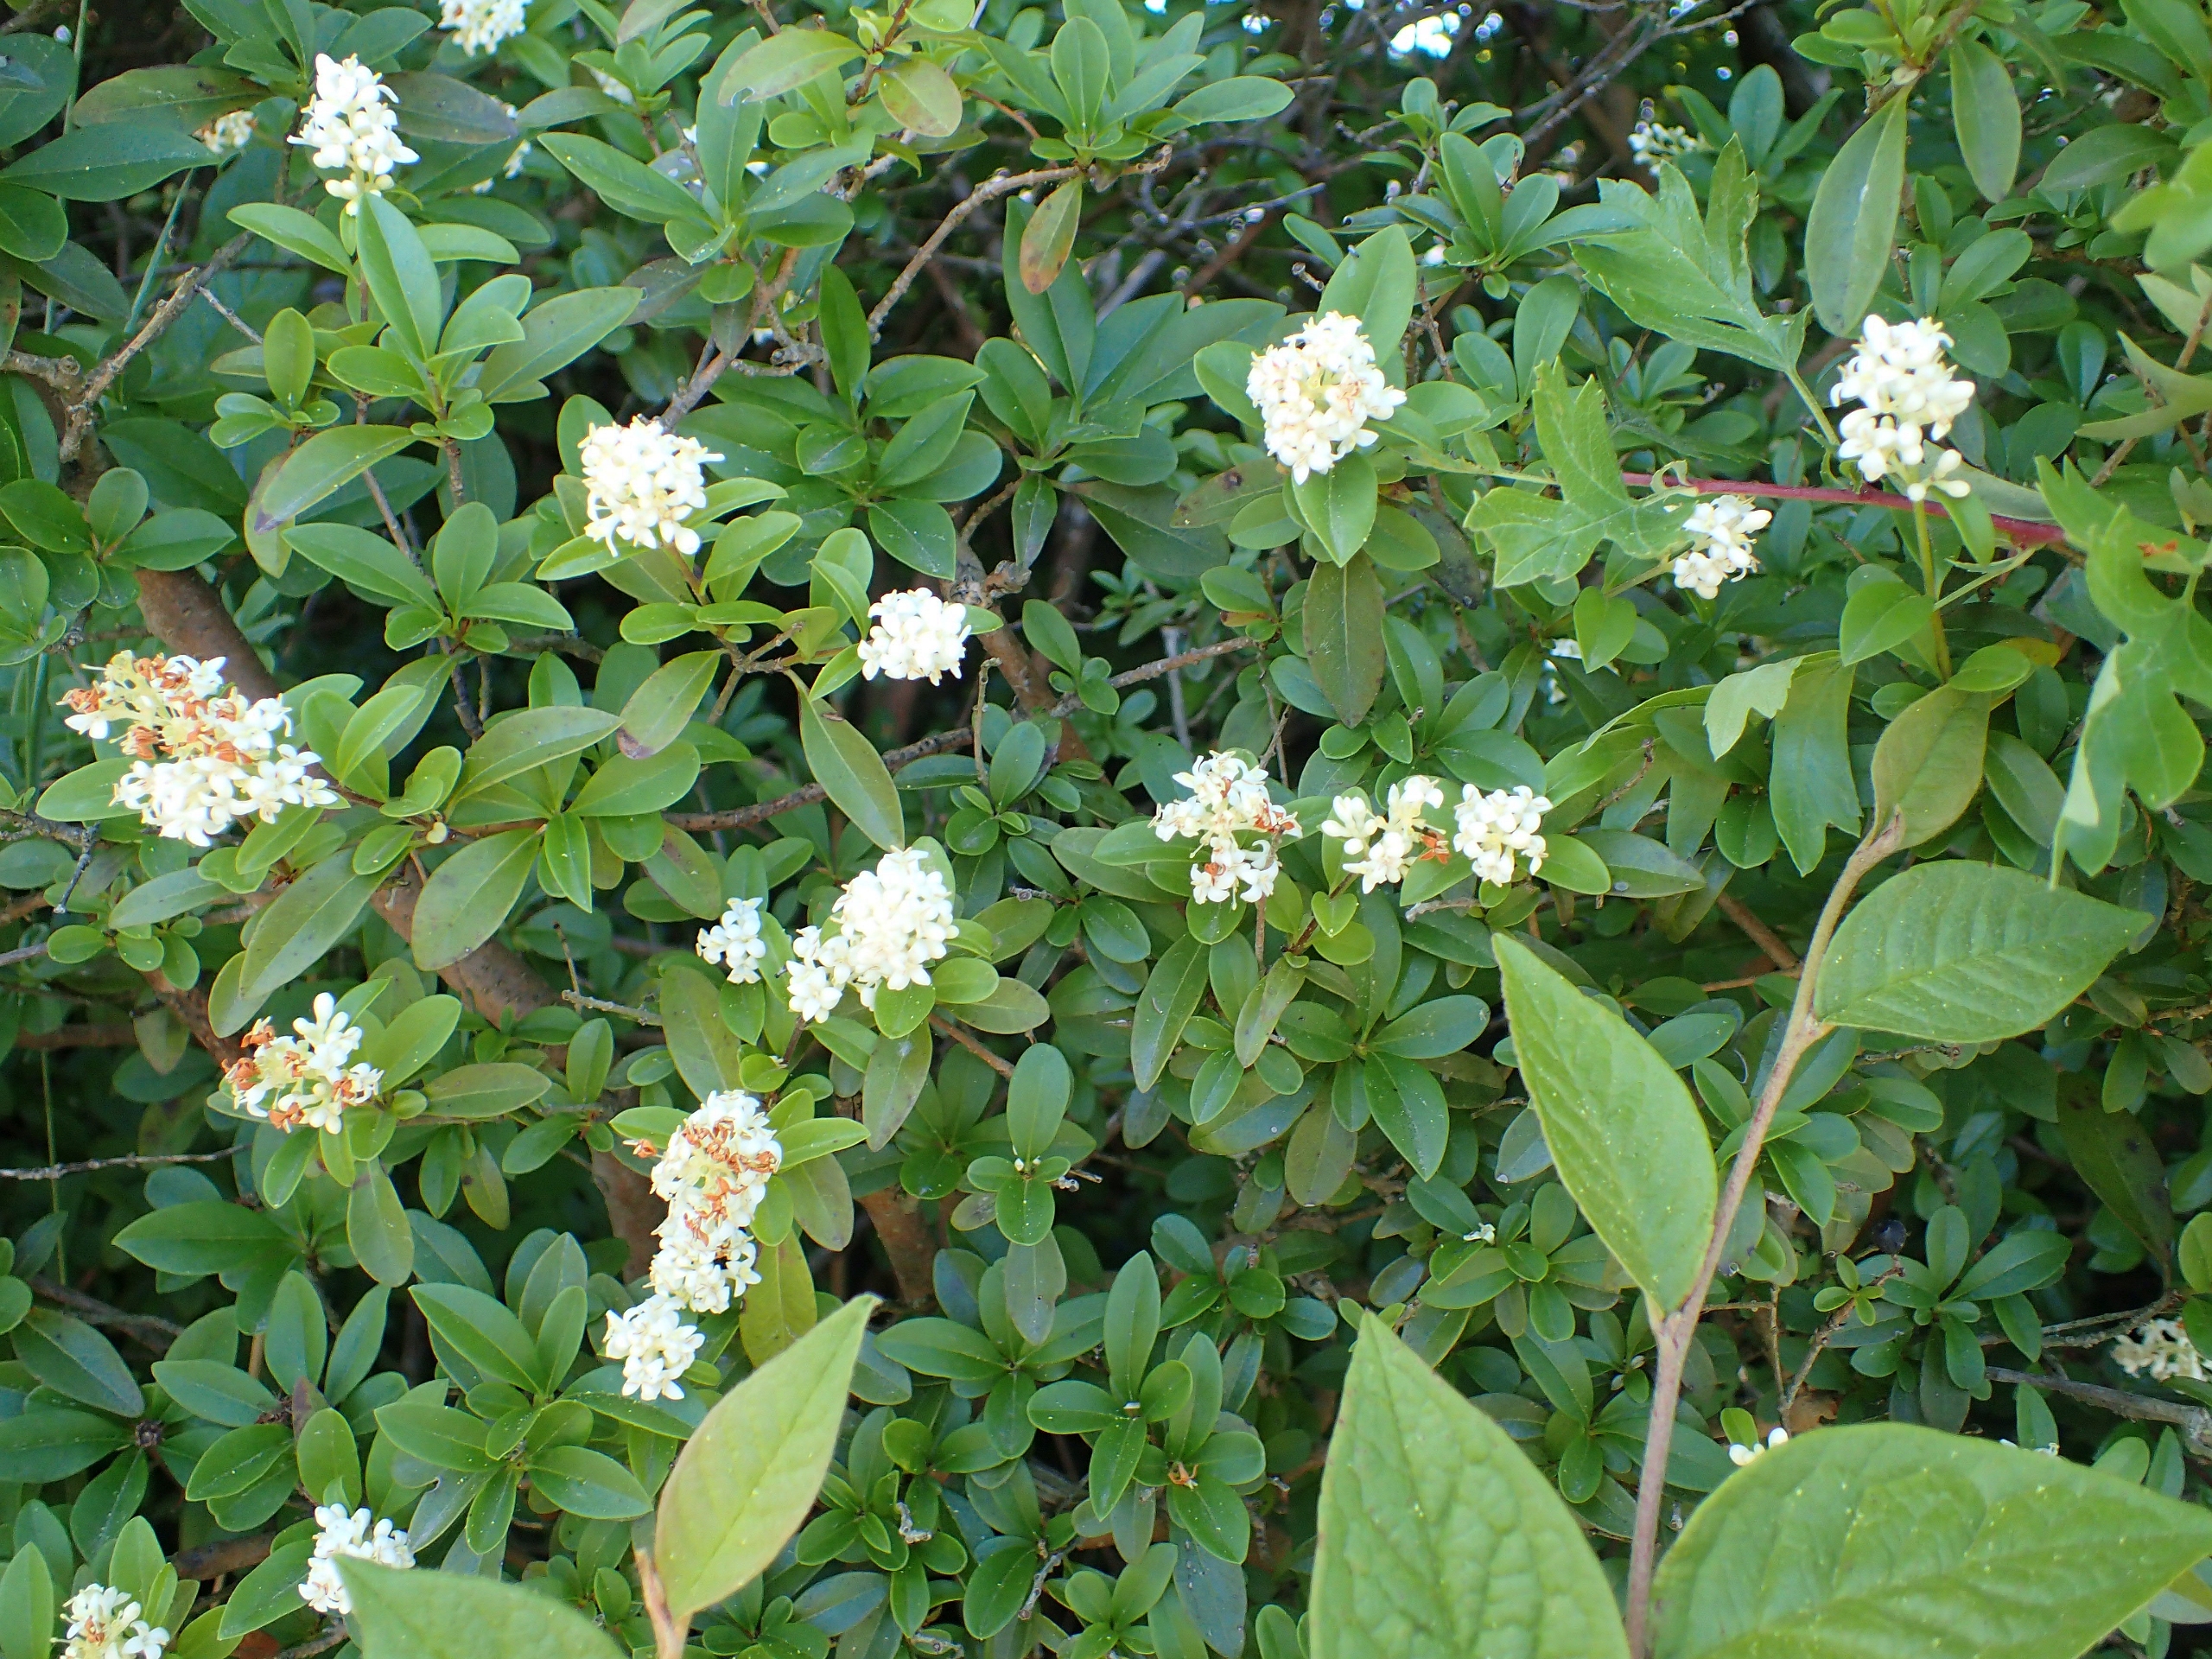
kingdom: Plantae
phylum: Tracheophyta
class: Magnoliopsida
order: Lamiales
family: Oleaceae
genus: Ligustrum
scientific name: Ligustrum vulgare
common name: Liguster
